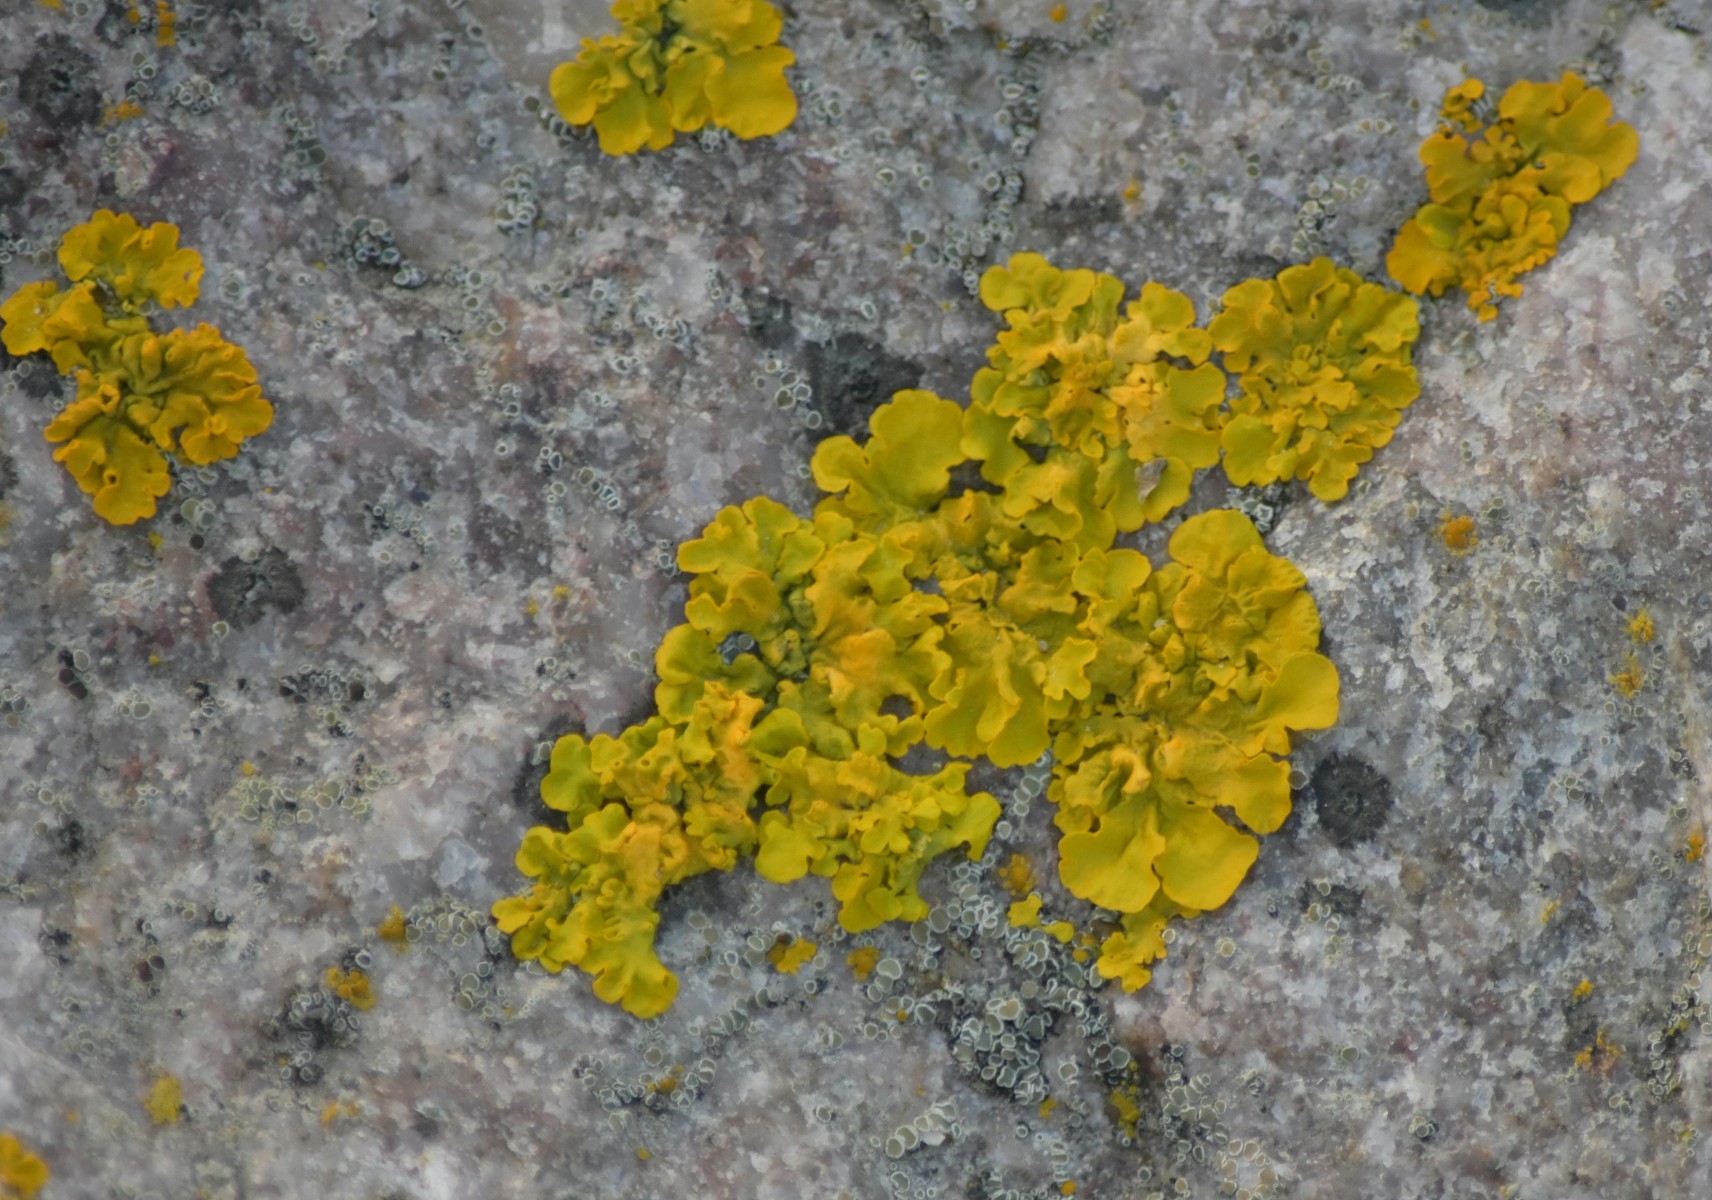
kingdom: Fungi
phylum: Ascomycota
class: Lecanoromycetes
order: Teloschistales
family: Teloschistaceae
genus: Xanthoria
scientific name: Xanthoria
